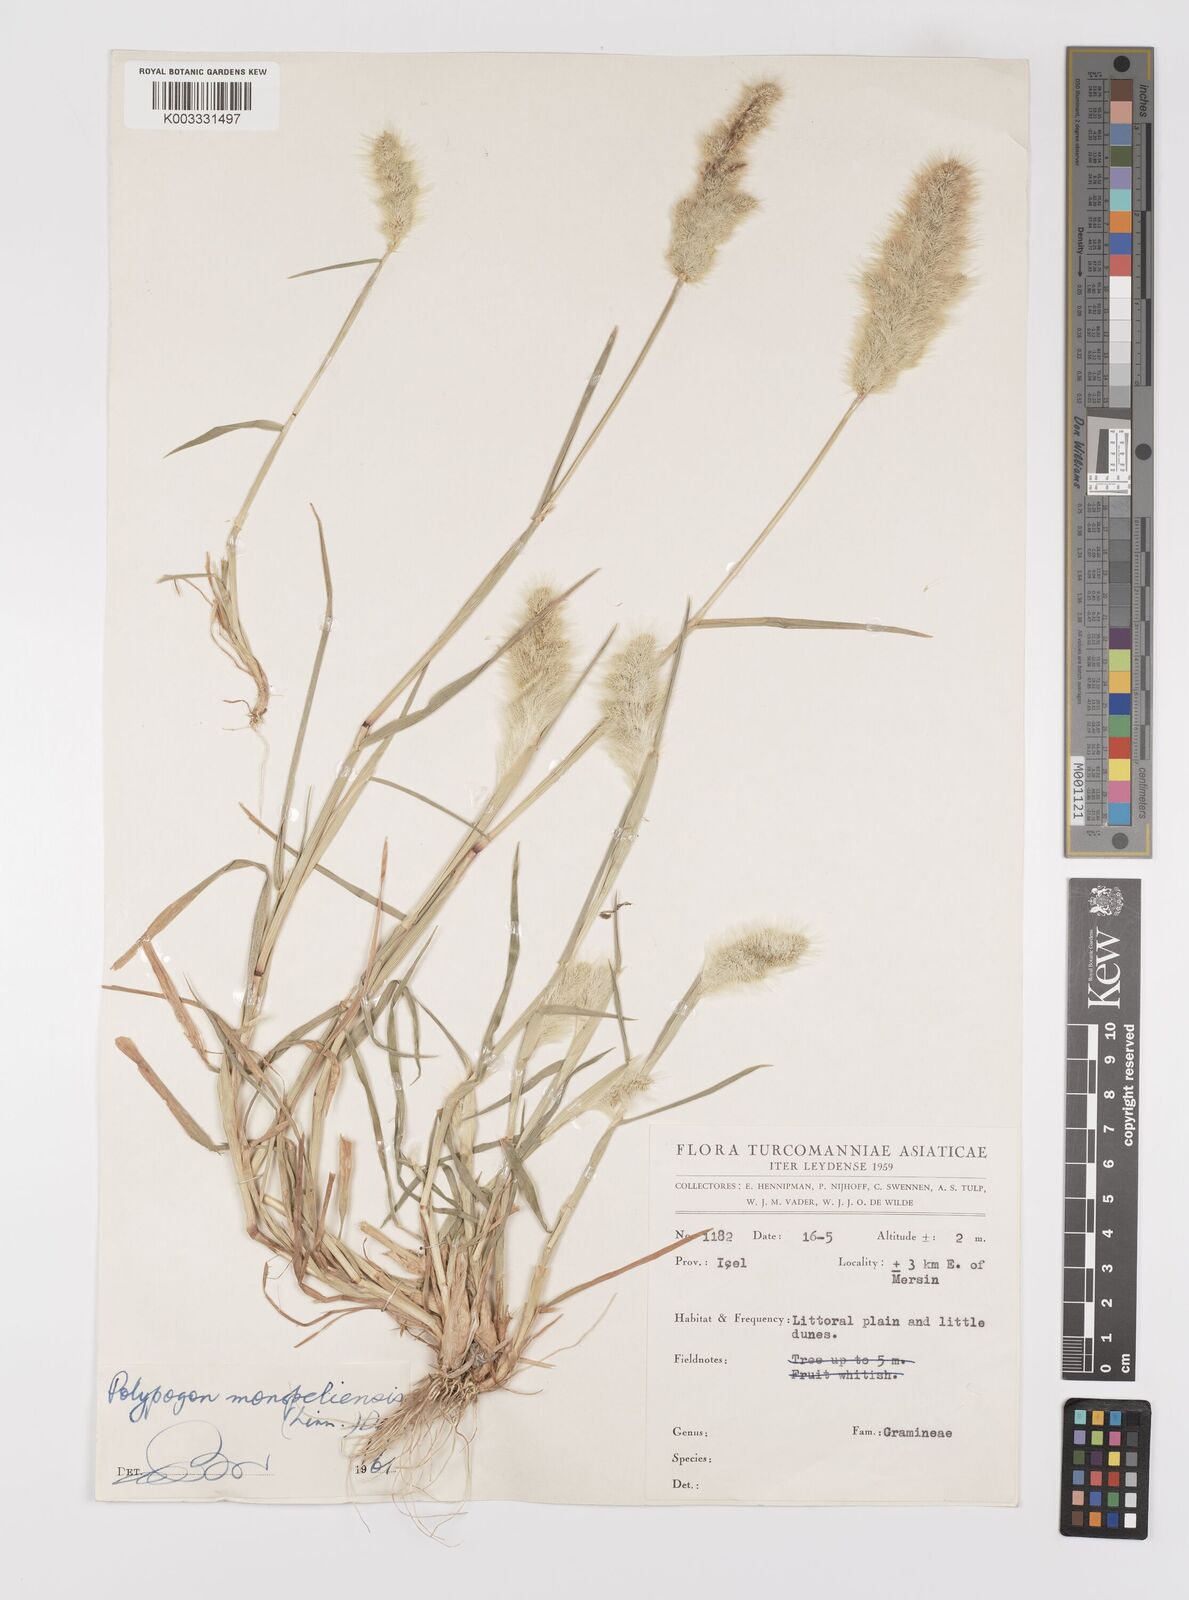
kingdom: Plantae
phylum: Tracheophyta
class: Liliopsida
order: Poales
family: Poaceae
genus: Polypogon
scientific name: Polypogon monspeliensis
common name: Annual rabbitsfoot grass
